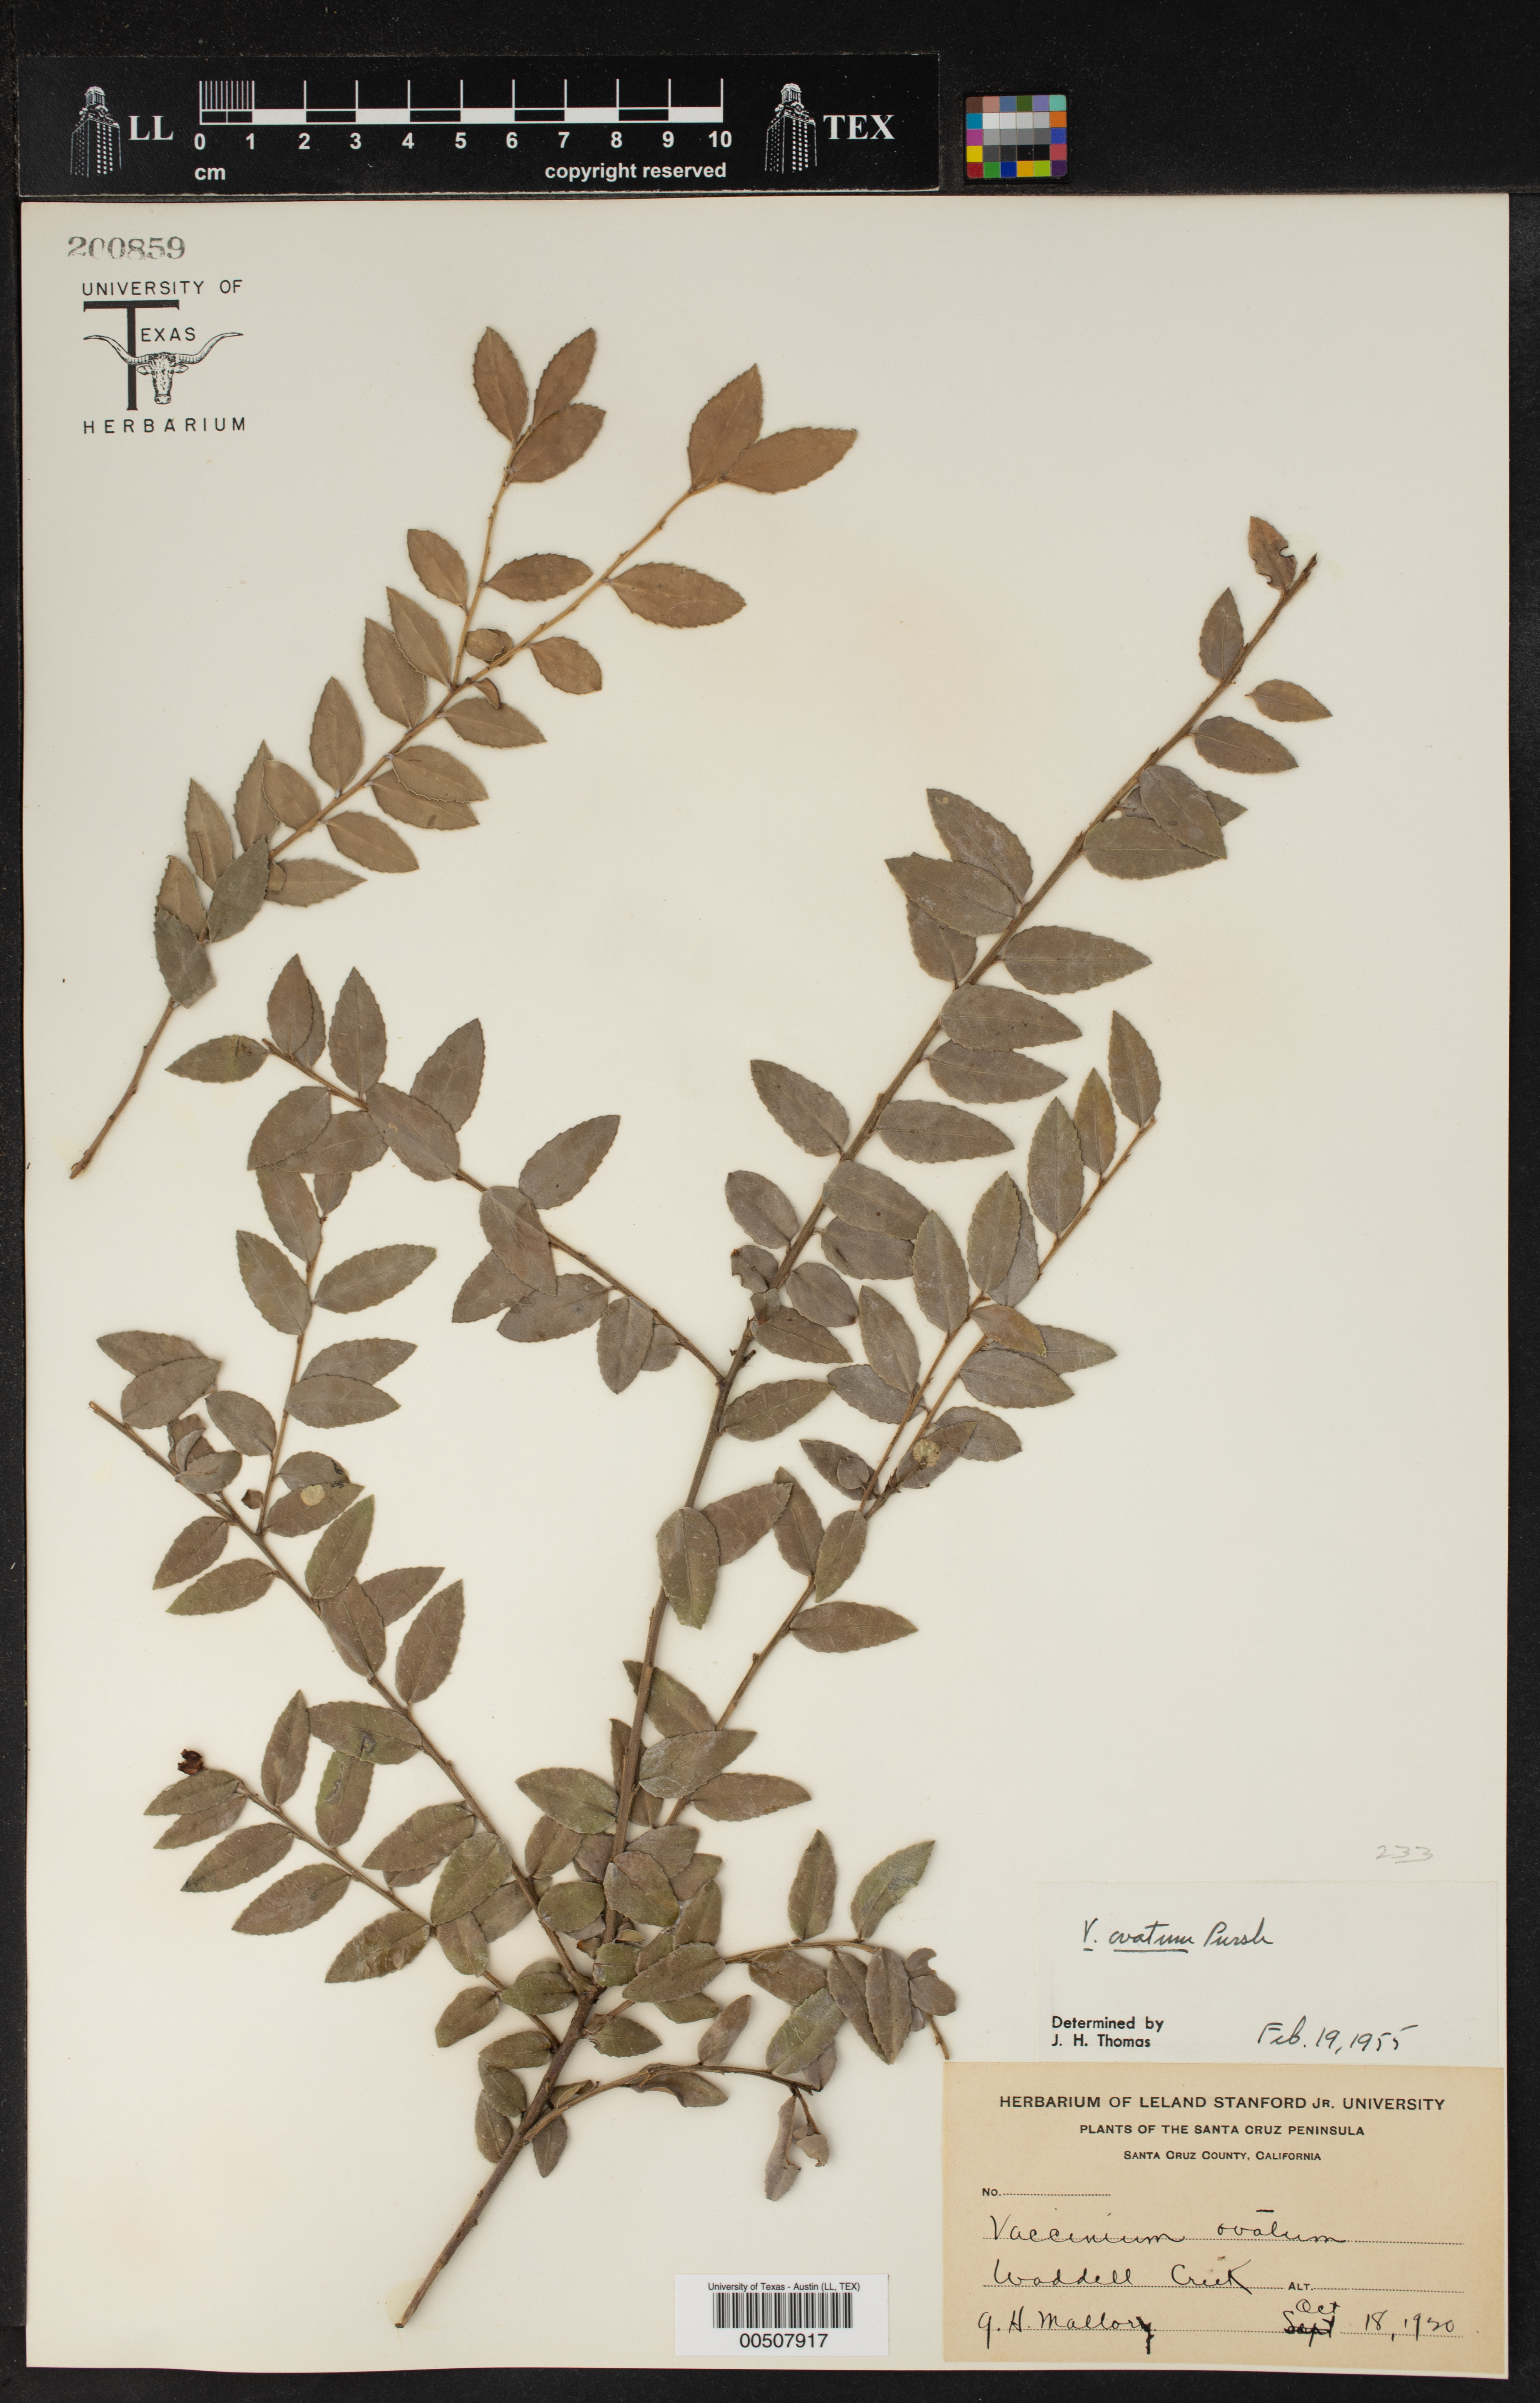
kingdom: Plantae
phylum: Tracheophyta
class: Magnoliopsida
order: Ericales
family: Ericaceae
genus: Vaccinium
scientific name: Vaccinium ovatum
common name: California-huckleberry
